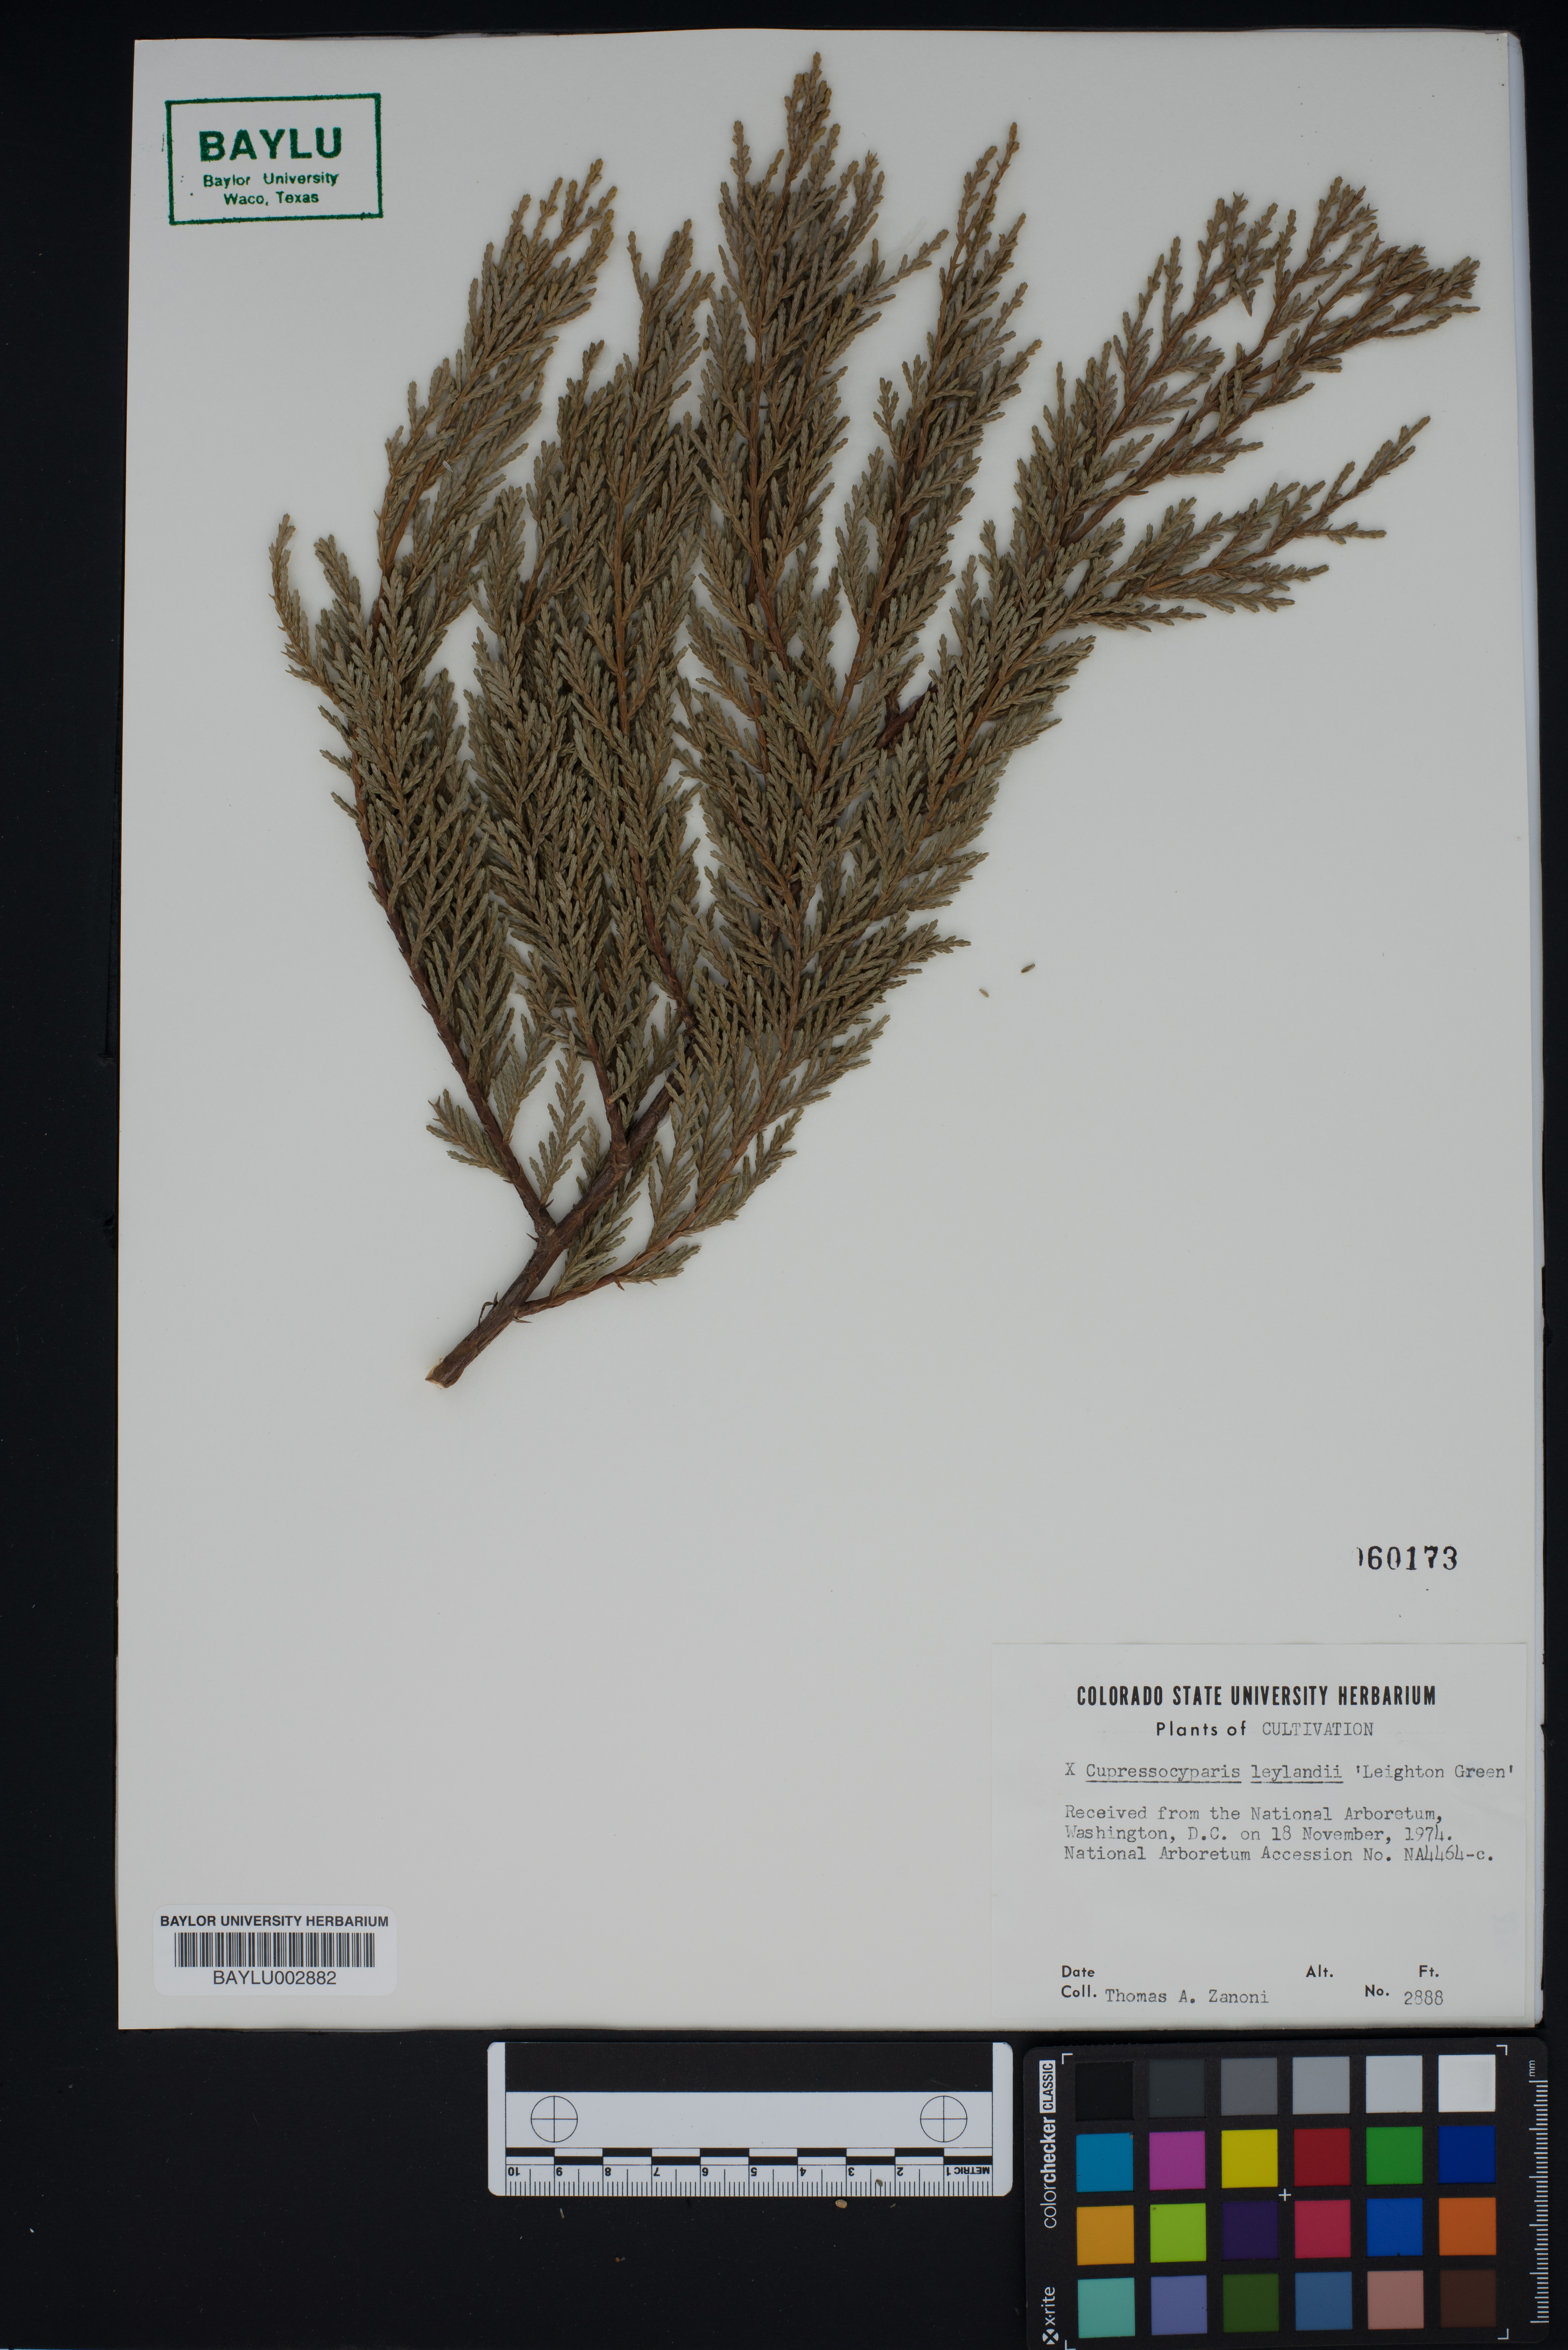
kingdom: Plantae
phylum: Tracheophyta
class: Pinopsida
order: Pinales
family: Cupressaceae
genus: Hesperotropsis
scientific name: Hesperotropsis leylandii
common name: Leyland cypress
